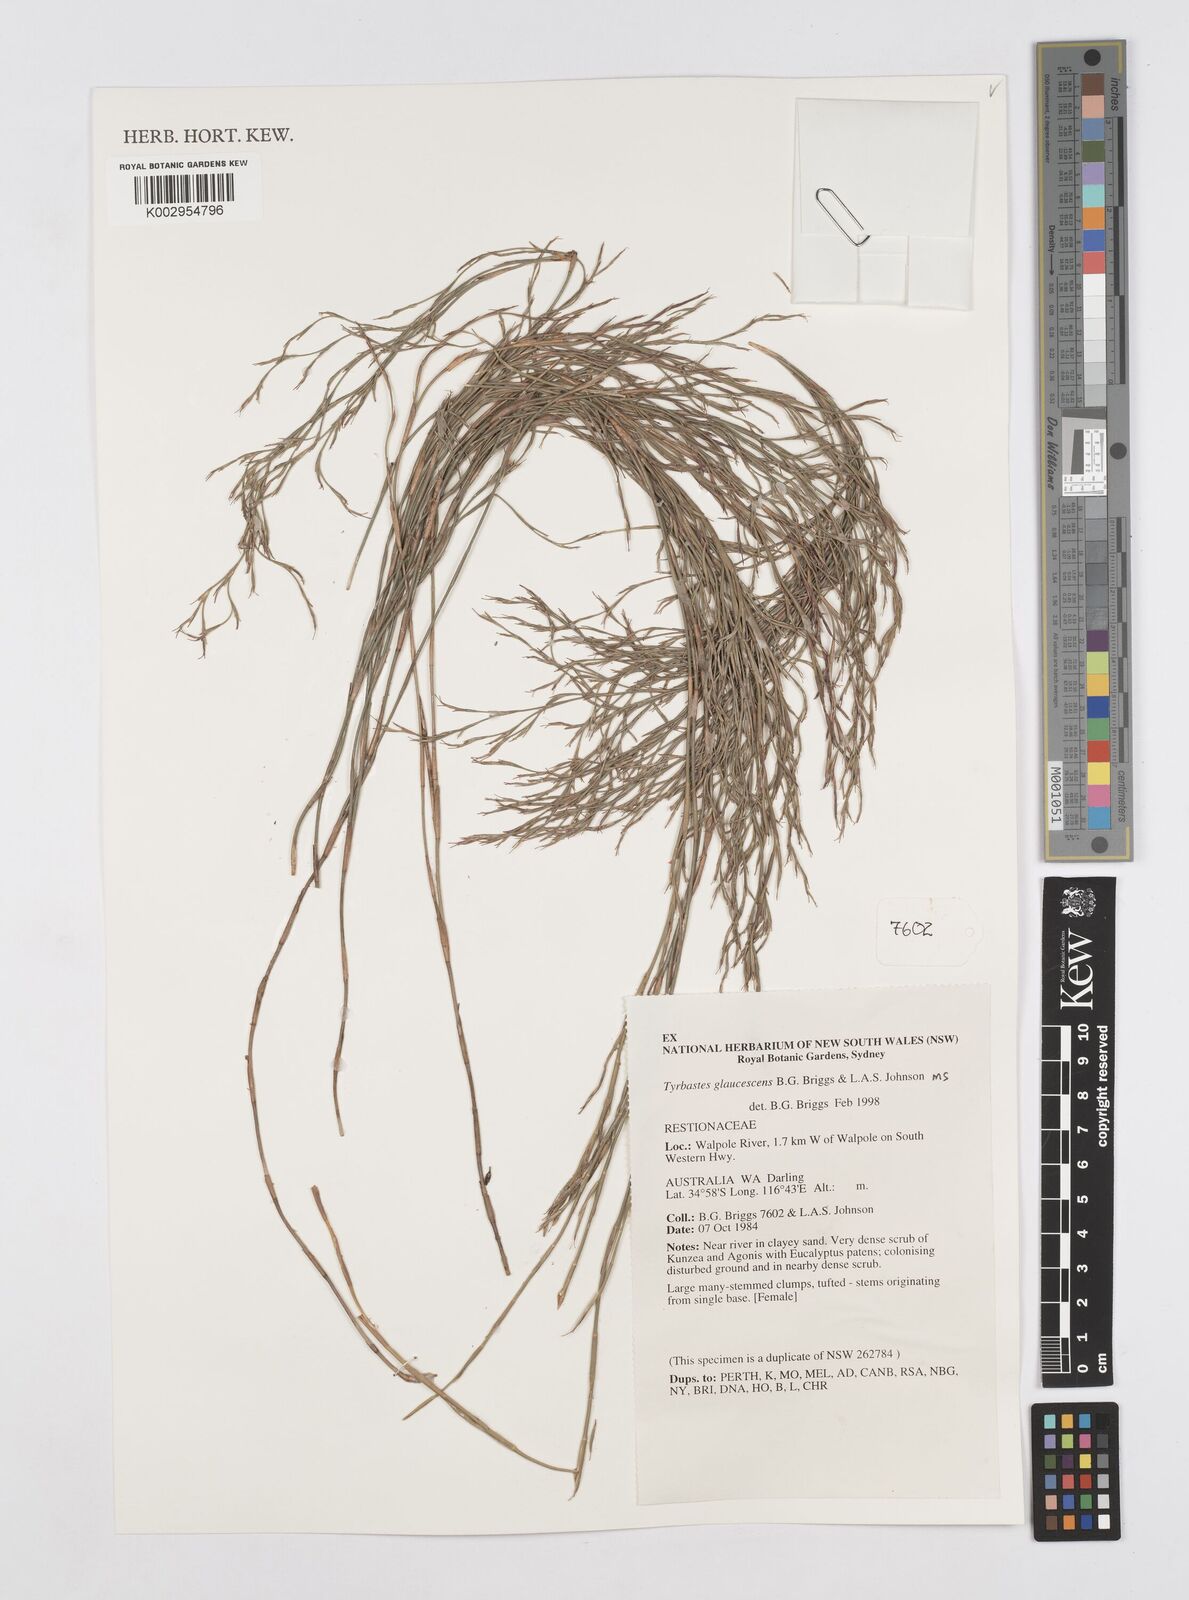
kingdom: Plantae
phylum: Tracheophyta
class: Liliopsida
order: Poales
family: Restionaceae
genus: Tyrbastes
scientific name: Tyrbastes glaucescens
